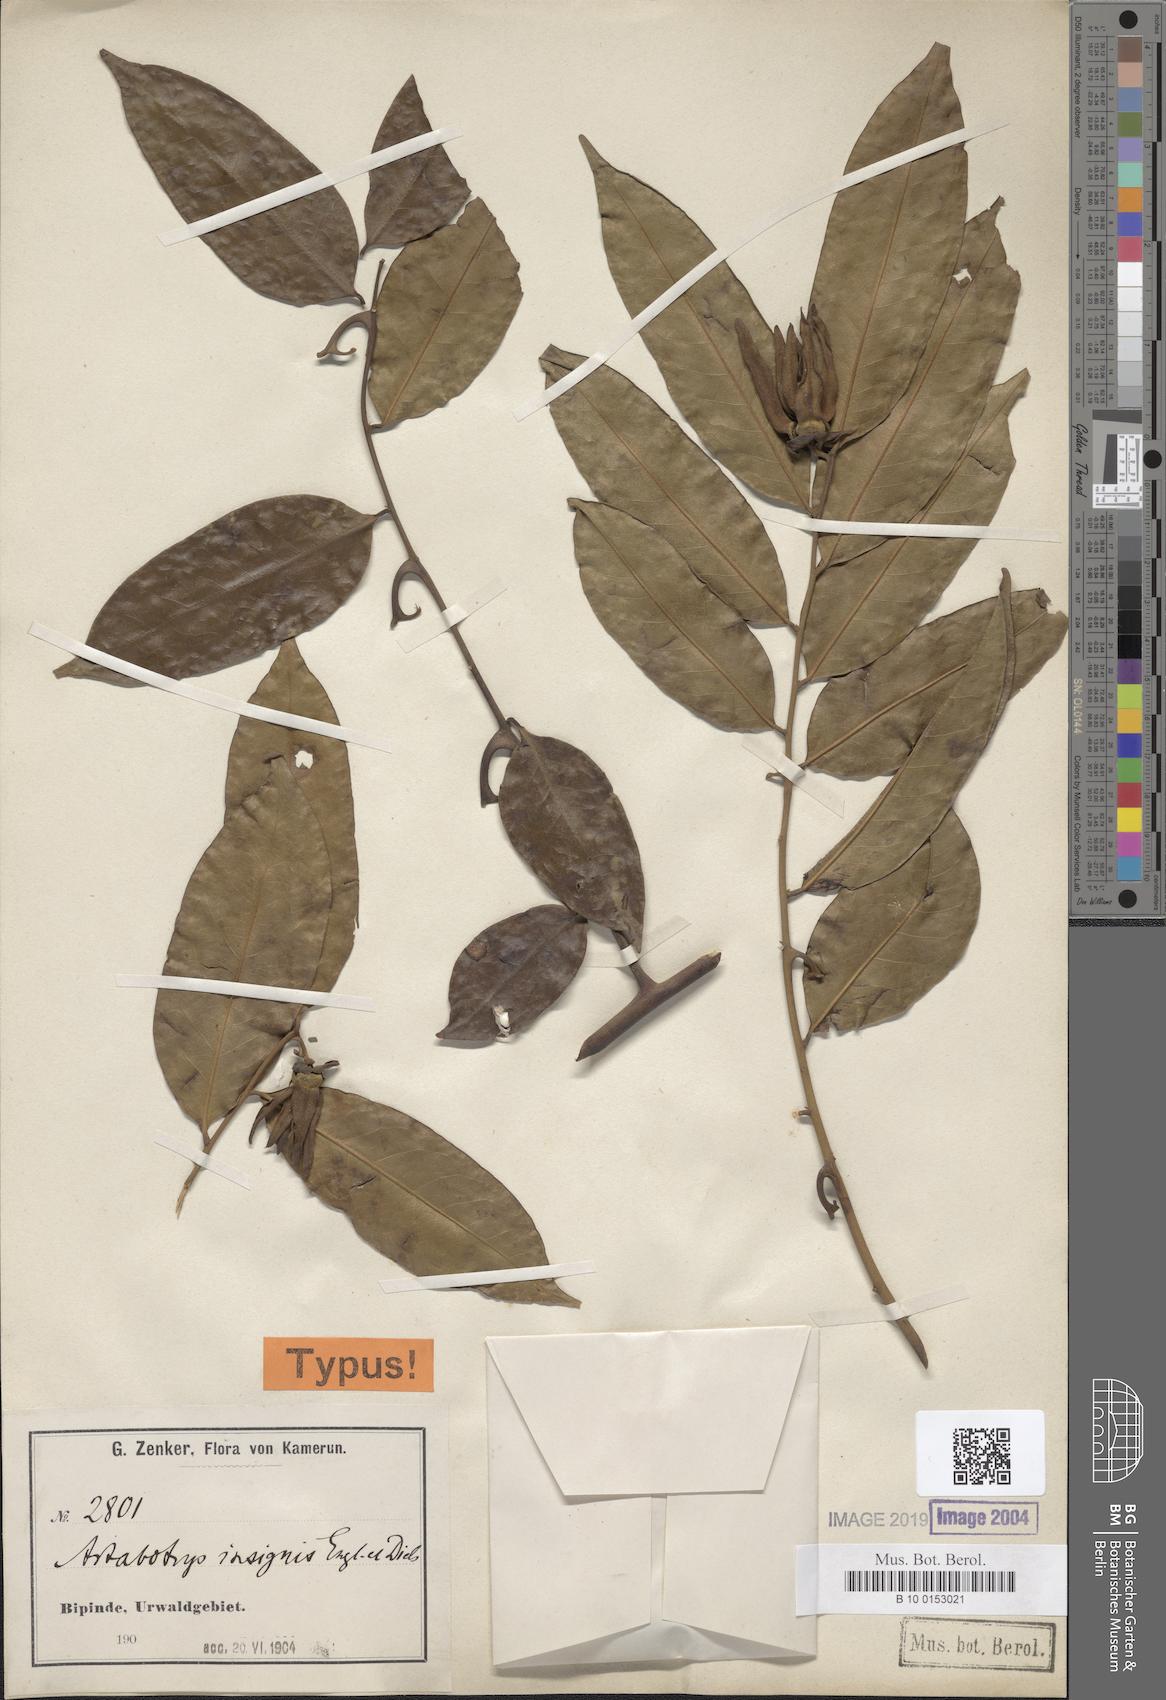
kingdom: Plantae
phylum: Tracheophyta
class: Magnoliopsida
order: Magnoliales
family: Annonaceae
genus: Artabotrys
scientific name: Artabotrys insignis
